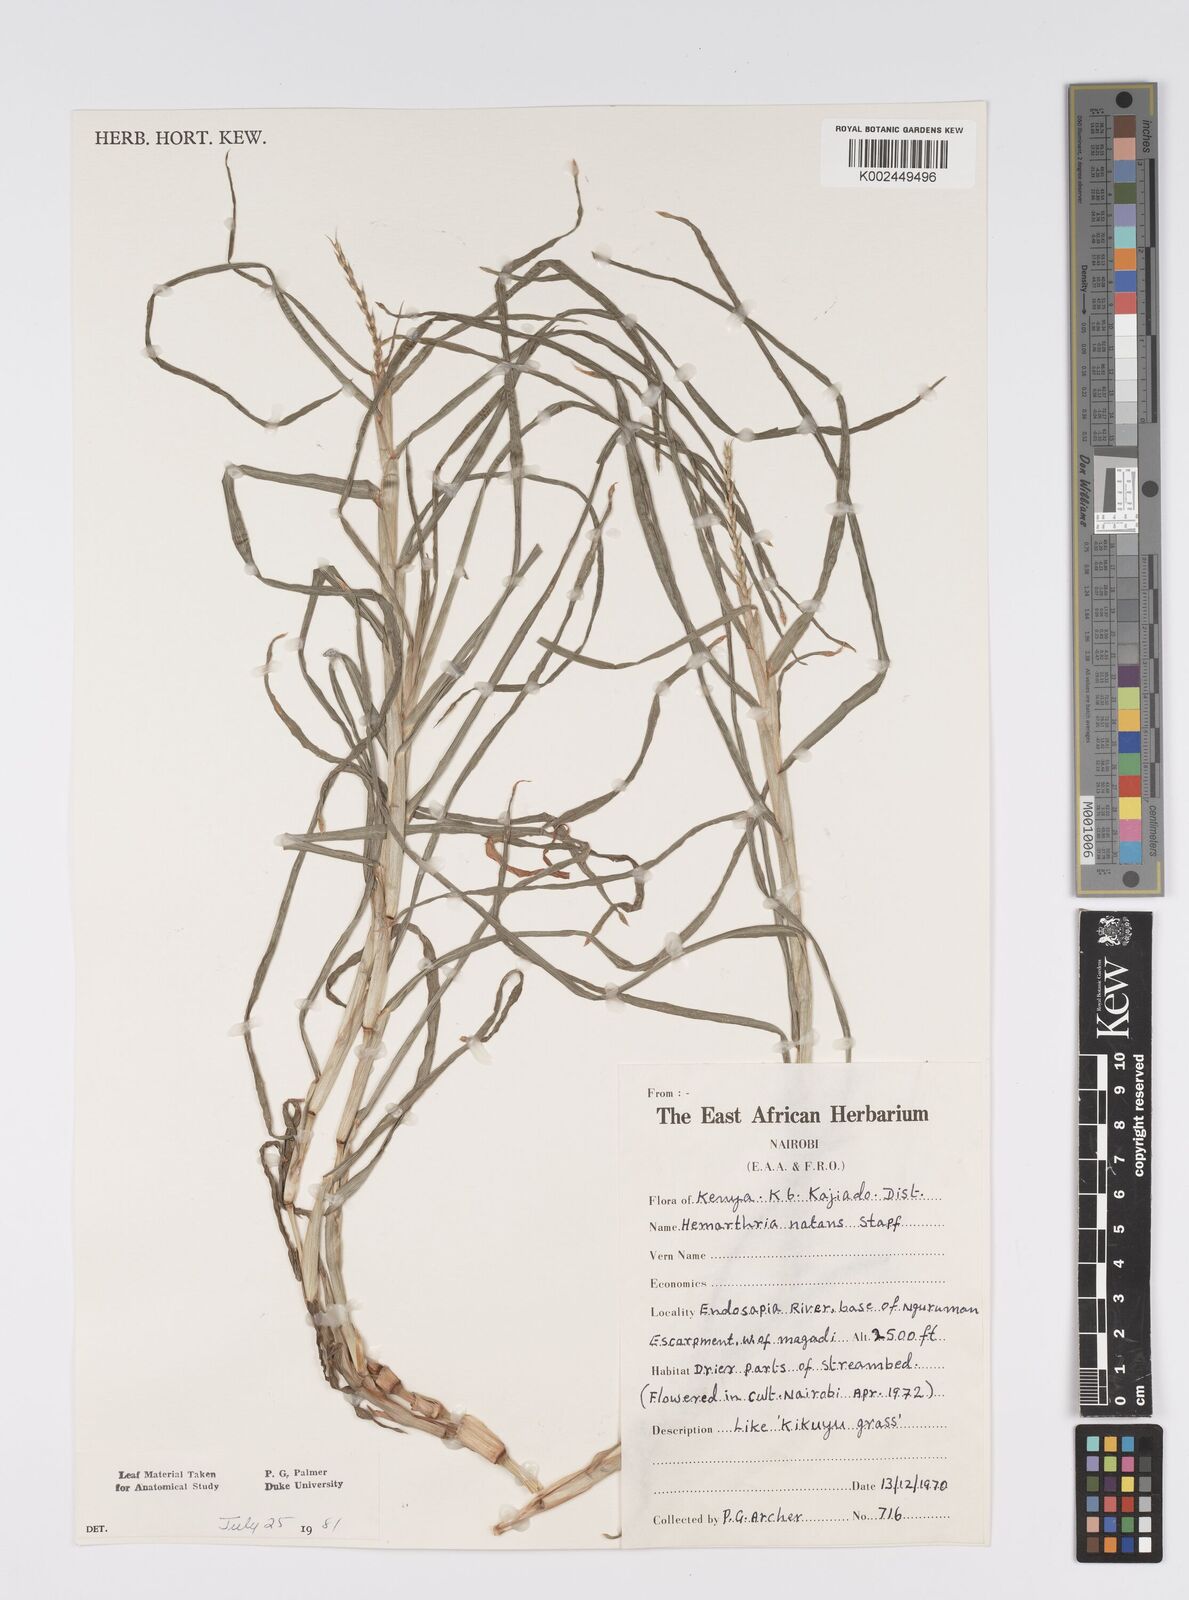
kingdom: Plantae
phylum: Tracheophyta
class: Liliopsida
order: Poales
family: Poaceae
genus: Hemarthria
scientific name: Hemarthria natans
